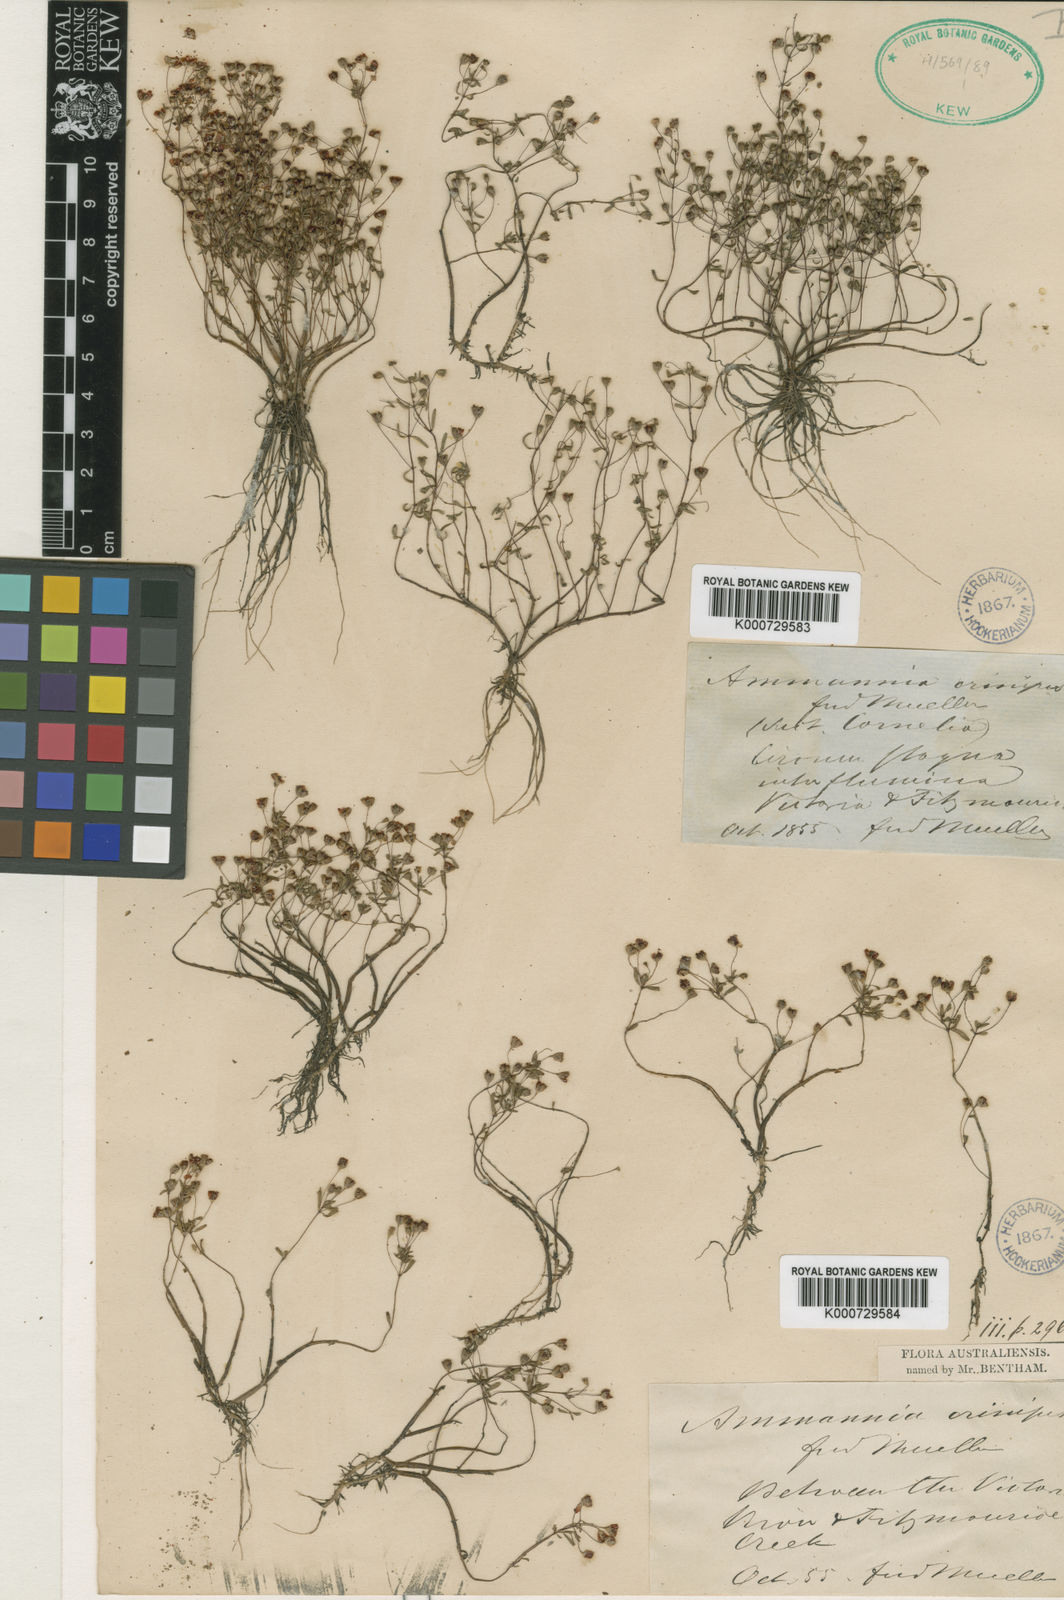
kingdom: Plantae
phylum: Tracheophyta
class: Magnoliopsida
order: Myrtales
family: Lythraceae
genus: Ammannia
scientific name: Ammannia crinipes
